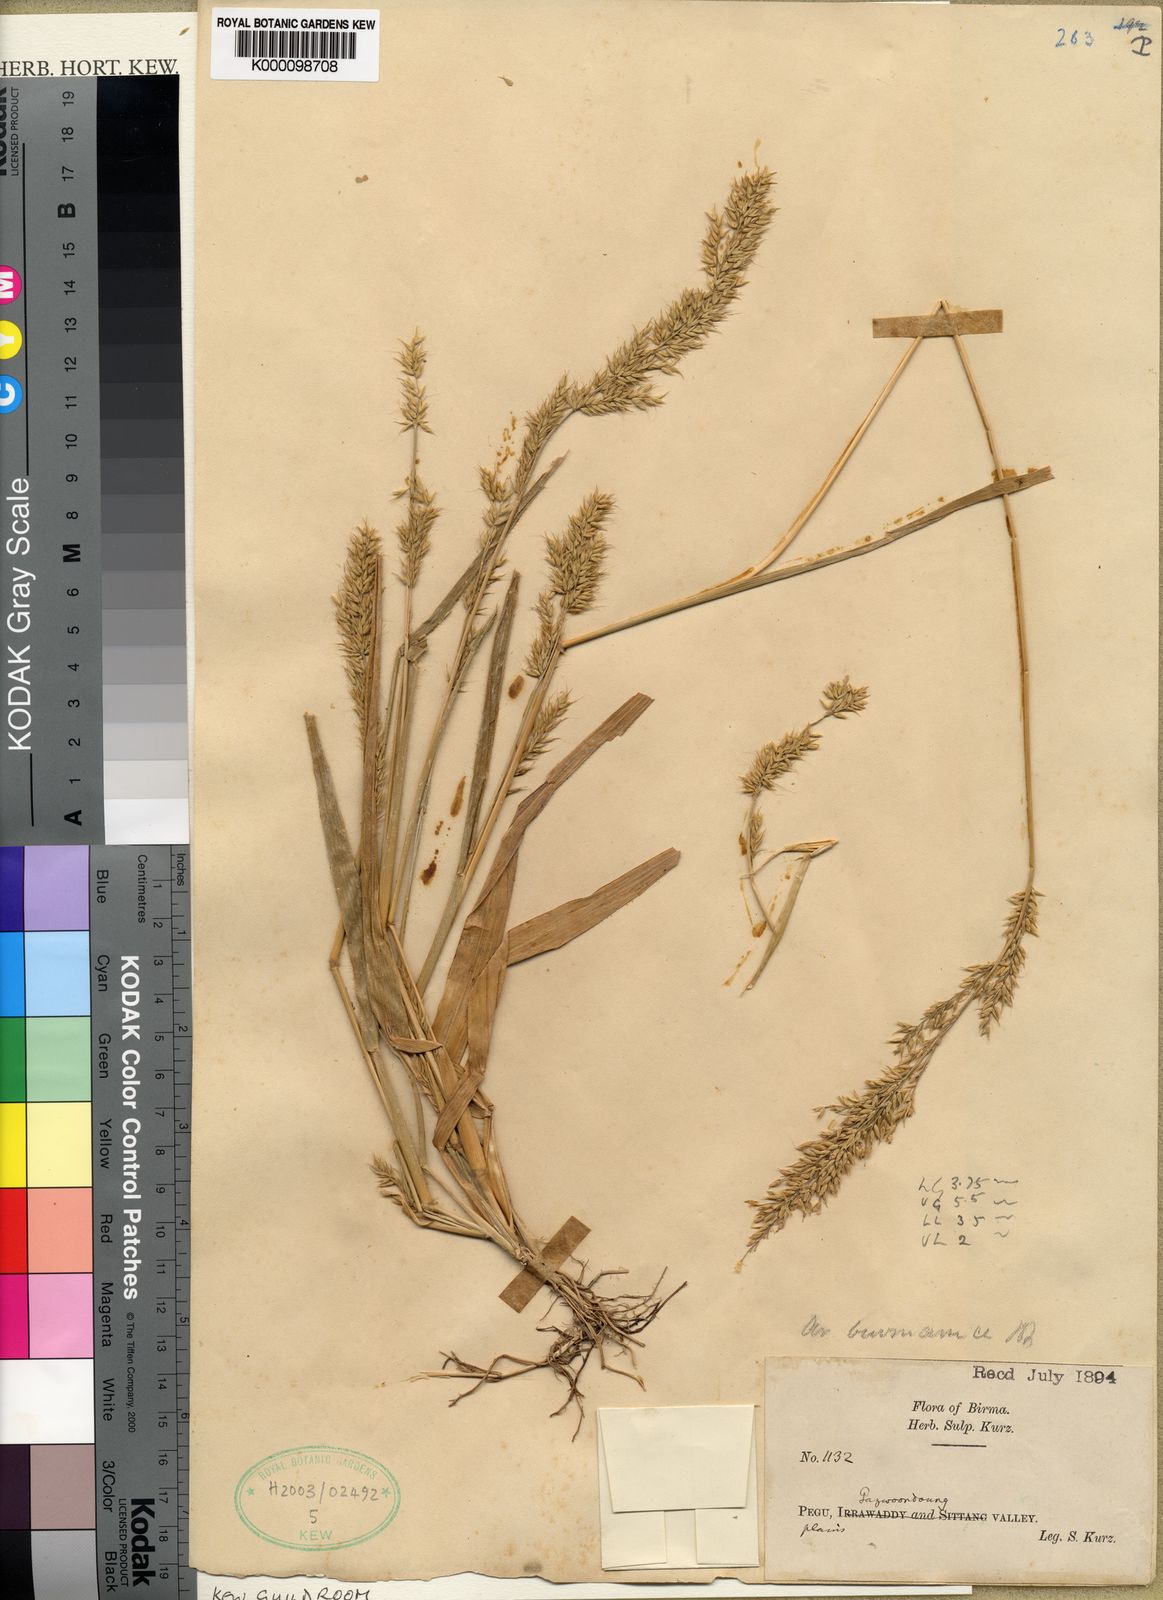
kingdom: Plantae
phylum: Tracheophyta
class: Liliopsida
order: Poales
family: Poaceae
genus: Arundinella
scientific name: Arundinella holcoides
